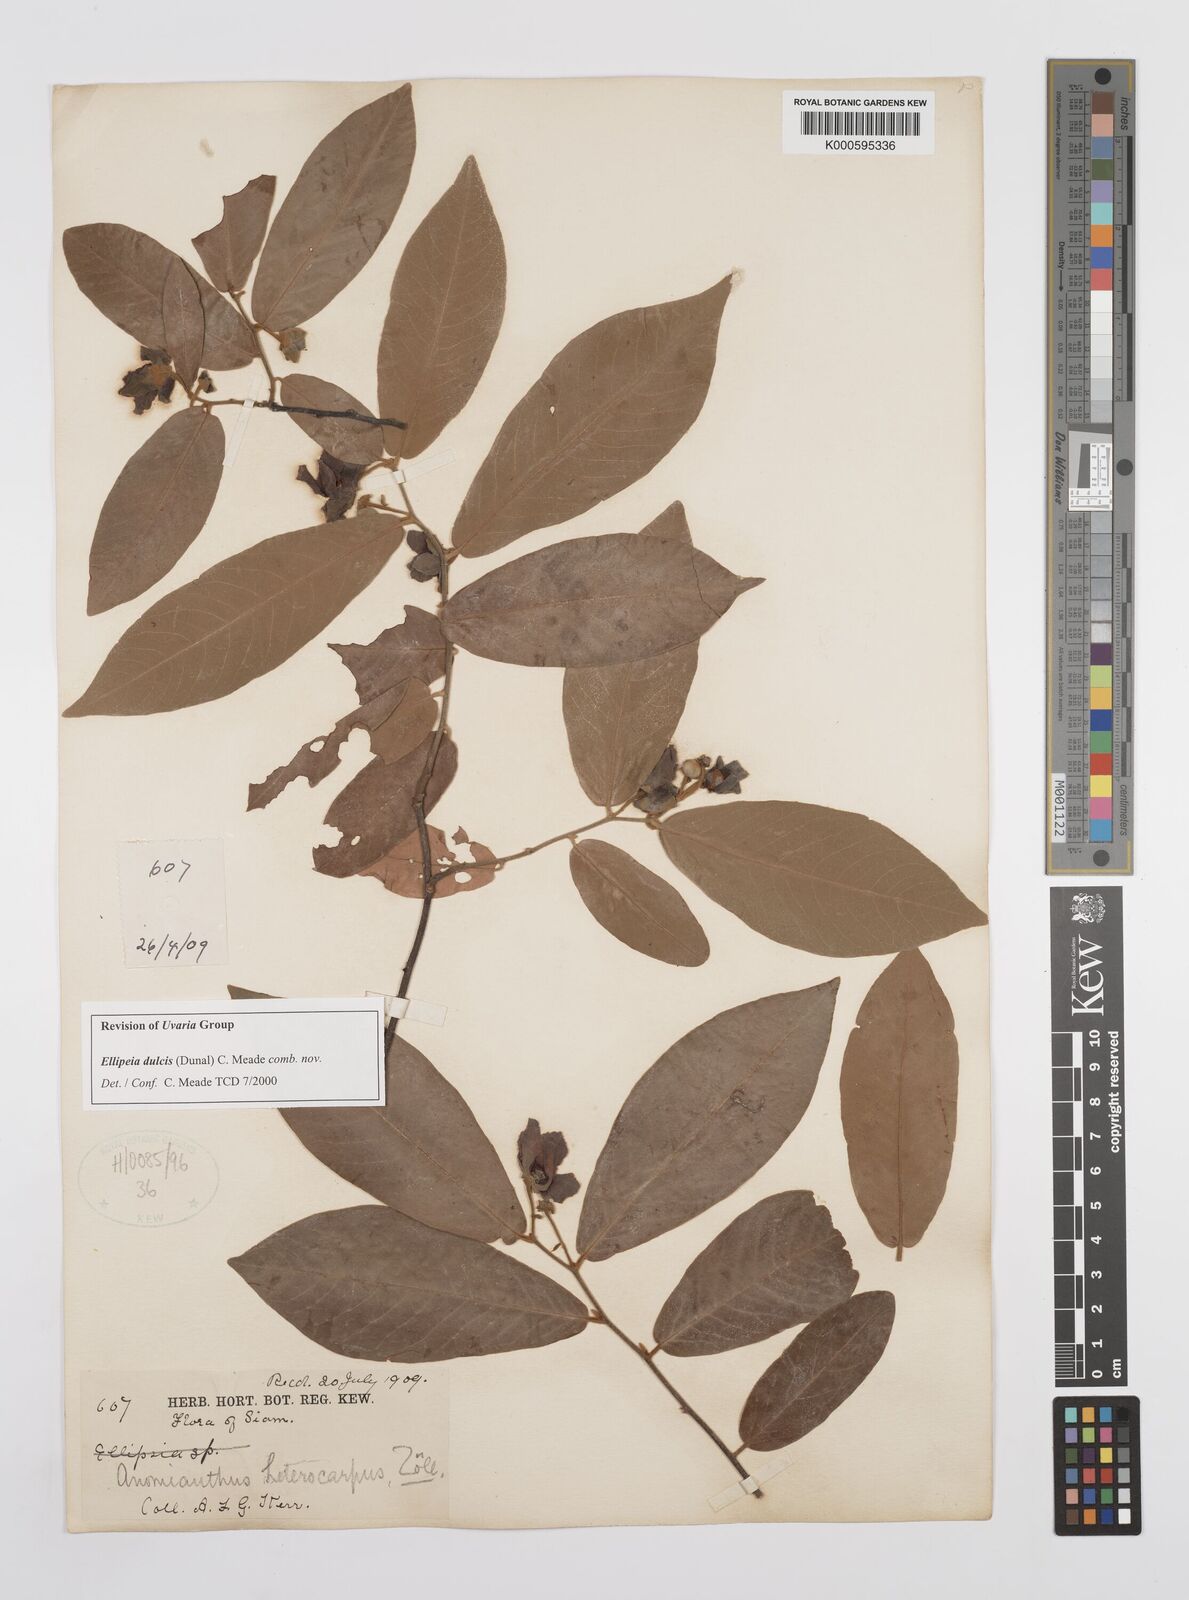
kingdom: Plantae
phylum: Tracheophyta
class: Magnoliopsida
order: Magnoliales
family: Annonaceae
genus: Uvaria
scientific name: Uvaria
